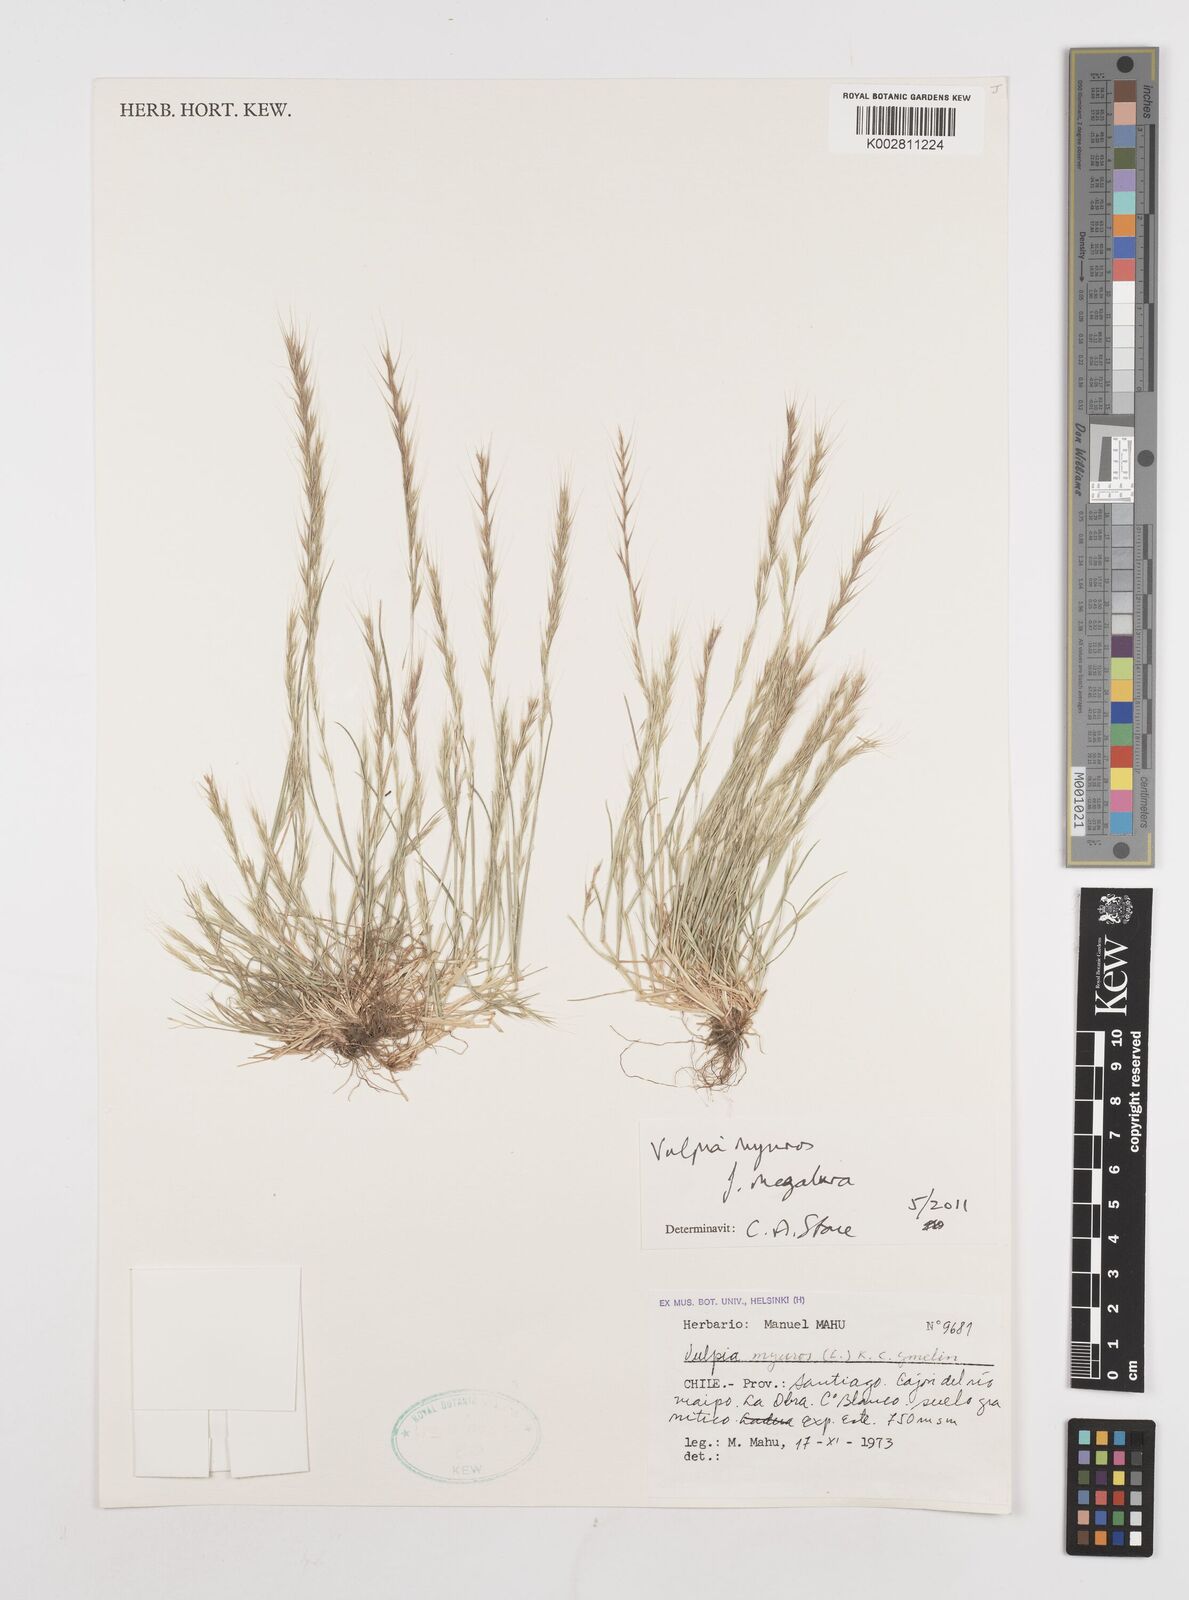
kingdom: Plantae
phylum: Tracheophyta
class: Liliopsida
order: Poales
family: Poaceae
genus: Festuca
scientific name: Festuca myuros
